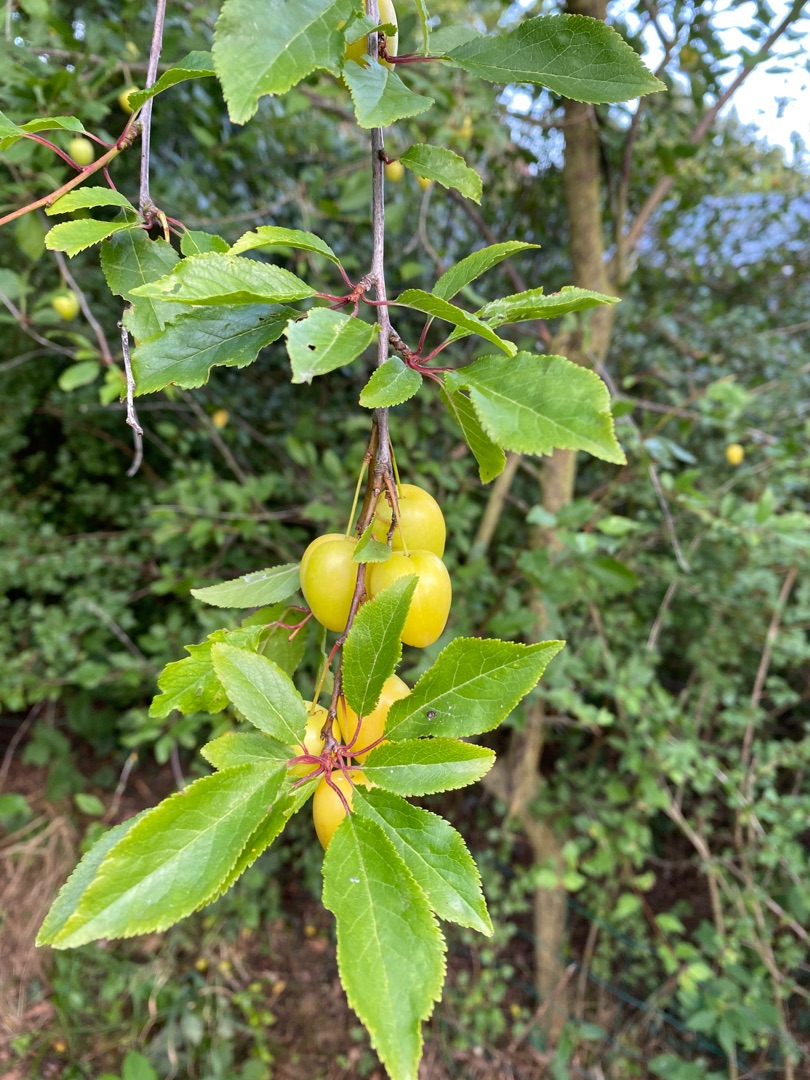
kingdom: Plantae
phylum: Tracheophyta
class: Magnoliopsida
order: Rosales
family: Rosaceae
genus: Prunus
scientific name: Prunus cerasifera
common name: Mirabel
